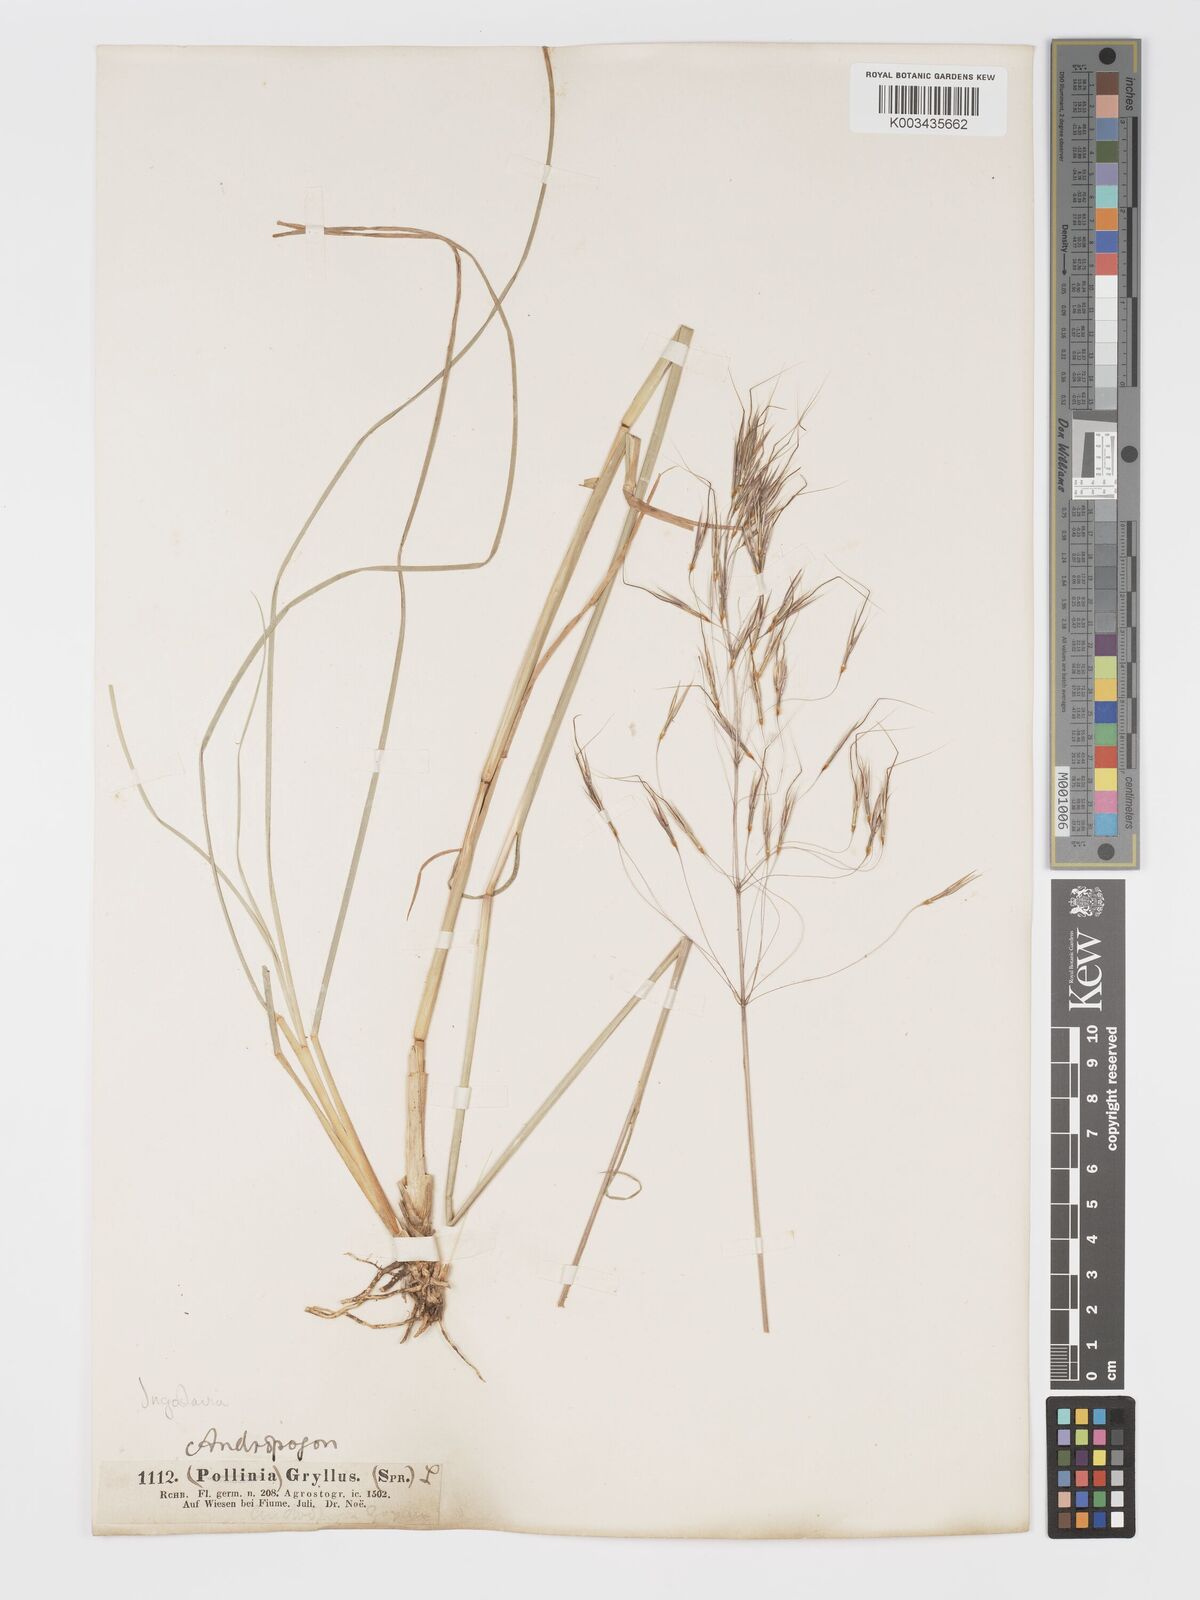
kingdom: Plantae
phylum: Tracheophyta
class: Liliopsida
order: Poales
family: Poaceae
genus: Chrysopogon
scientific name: Chrysopogon gryllus
